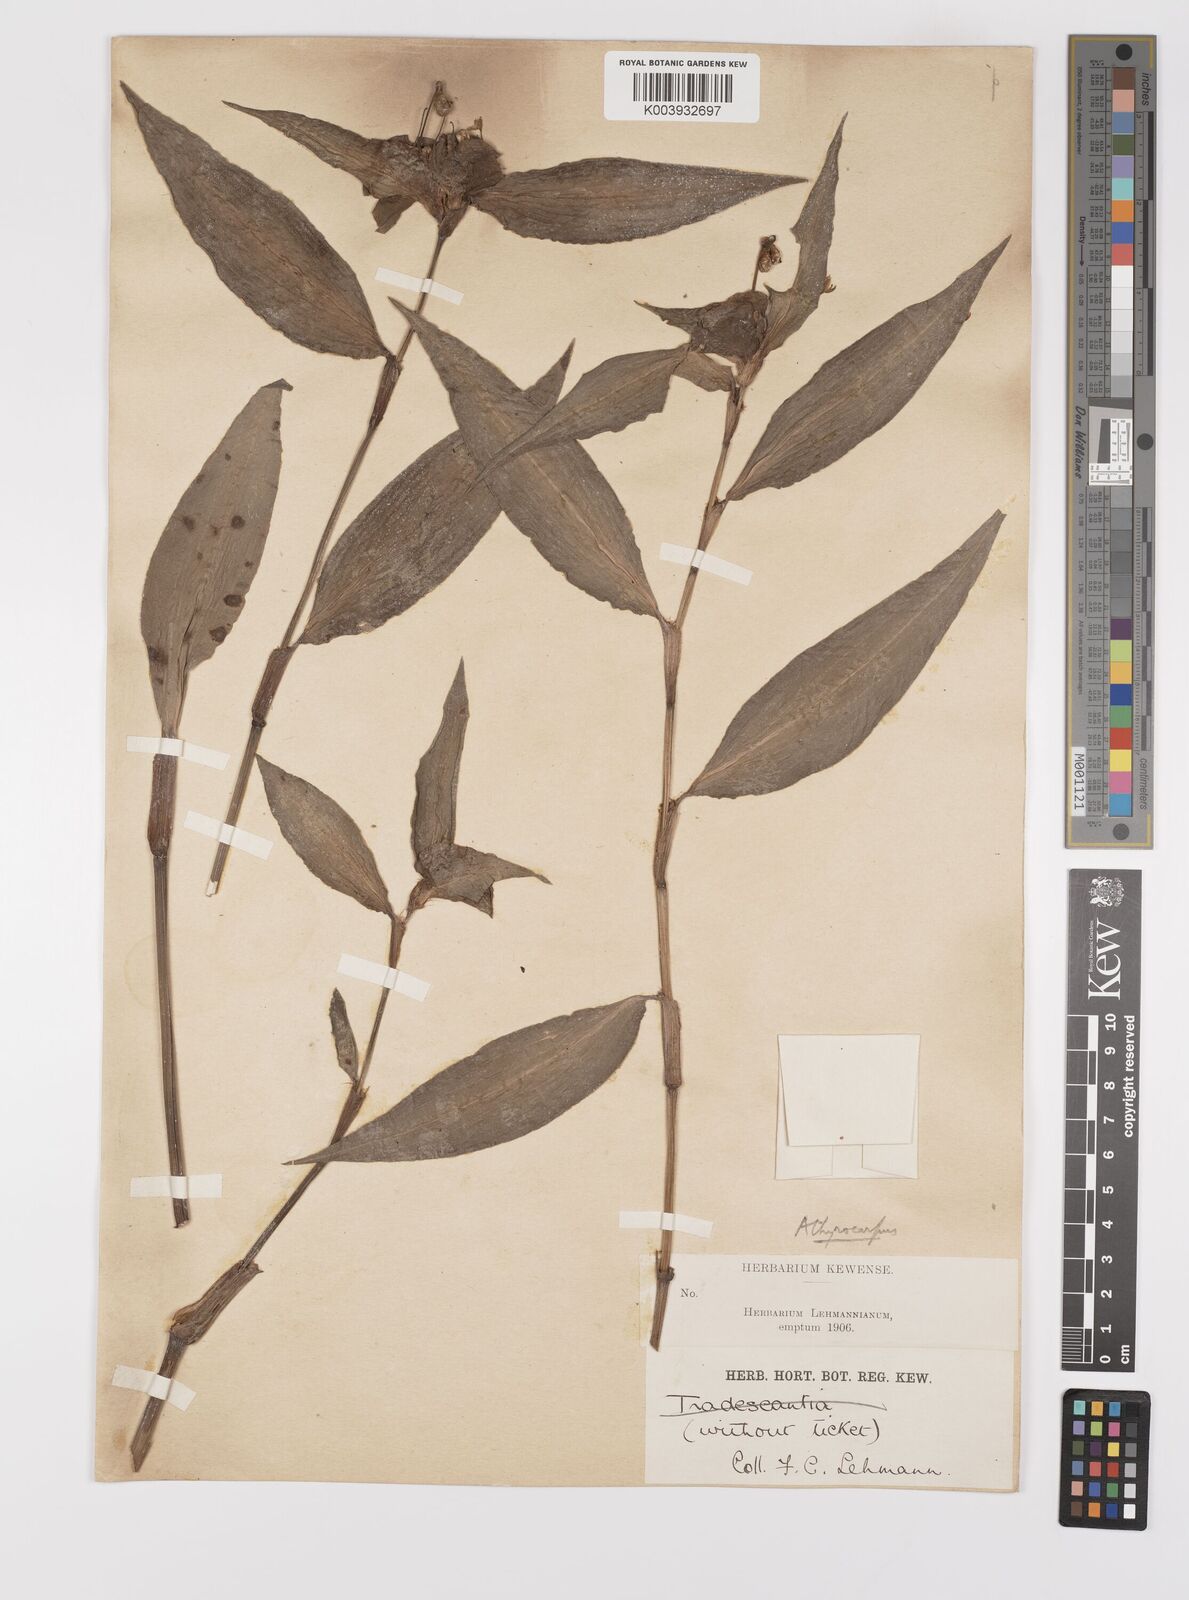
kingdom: Plantae
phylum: Tracheophyta
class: Liliopsida
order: Commelinales
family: Commelinaceae
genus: Commelina
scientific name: Commelina obliqua
